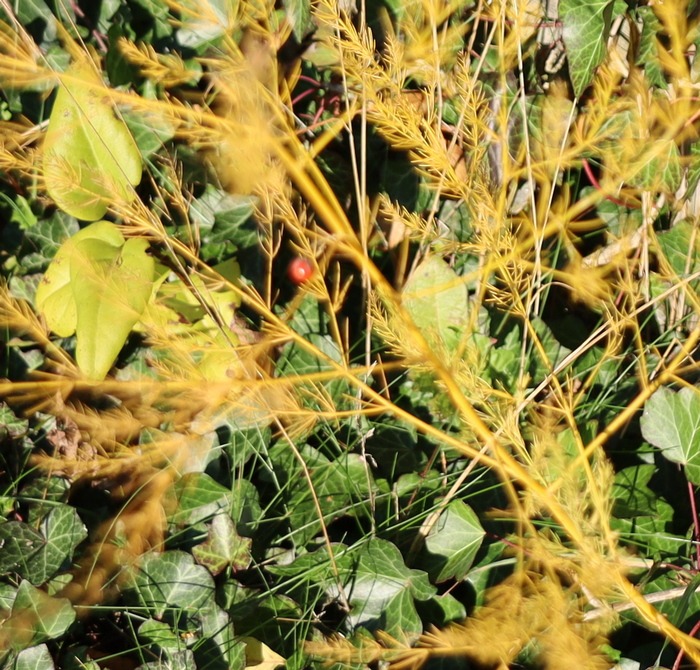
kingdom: Plantae
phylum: Tracheophyta
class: Liliopsida
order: Asparagales
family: Asparagaceae
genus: Asparagus
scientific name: Asparagus officinalis
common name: Asparges
